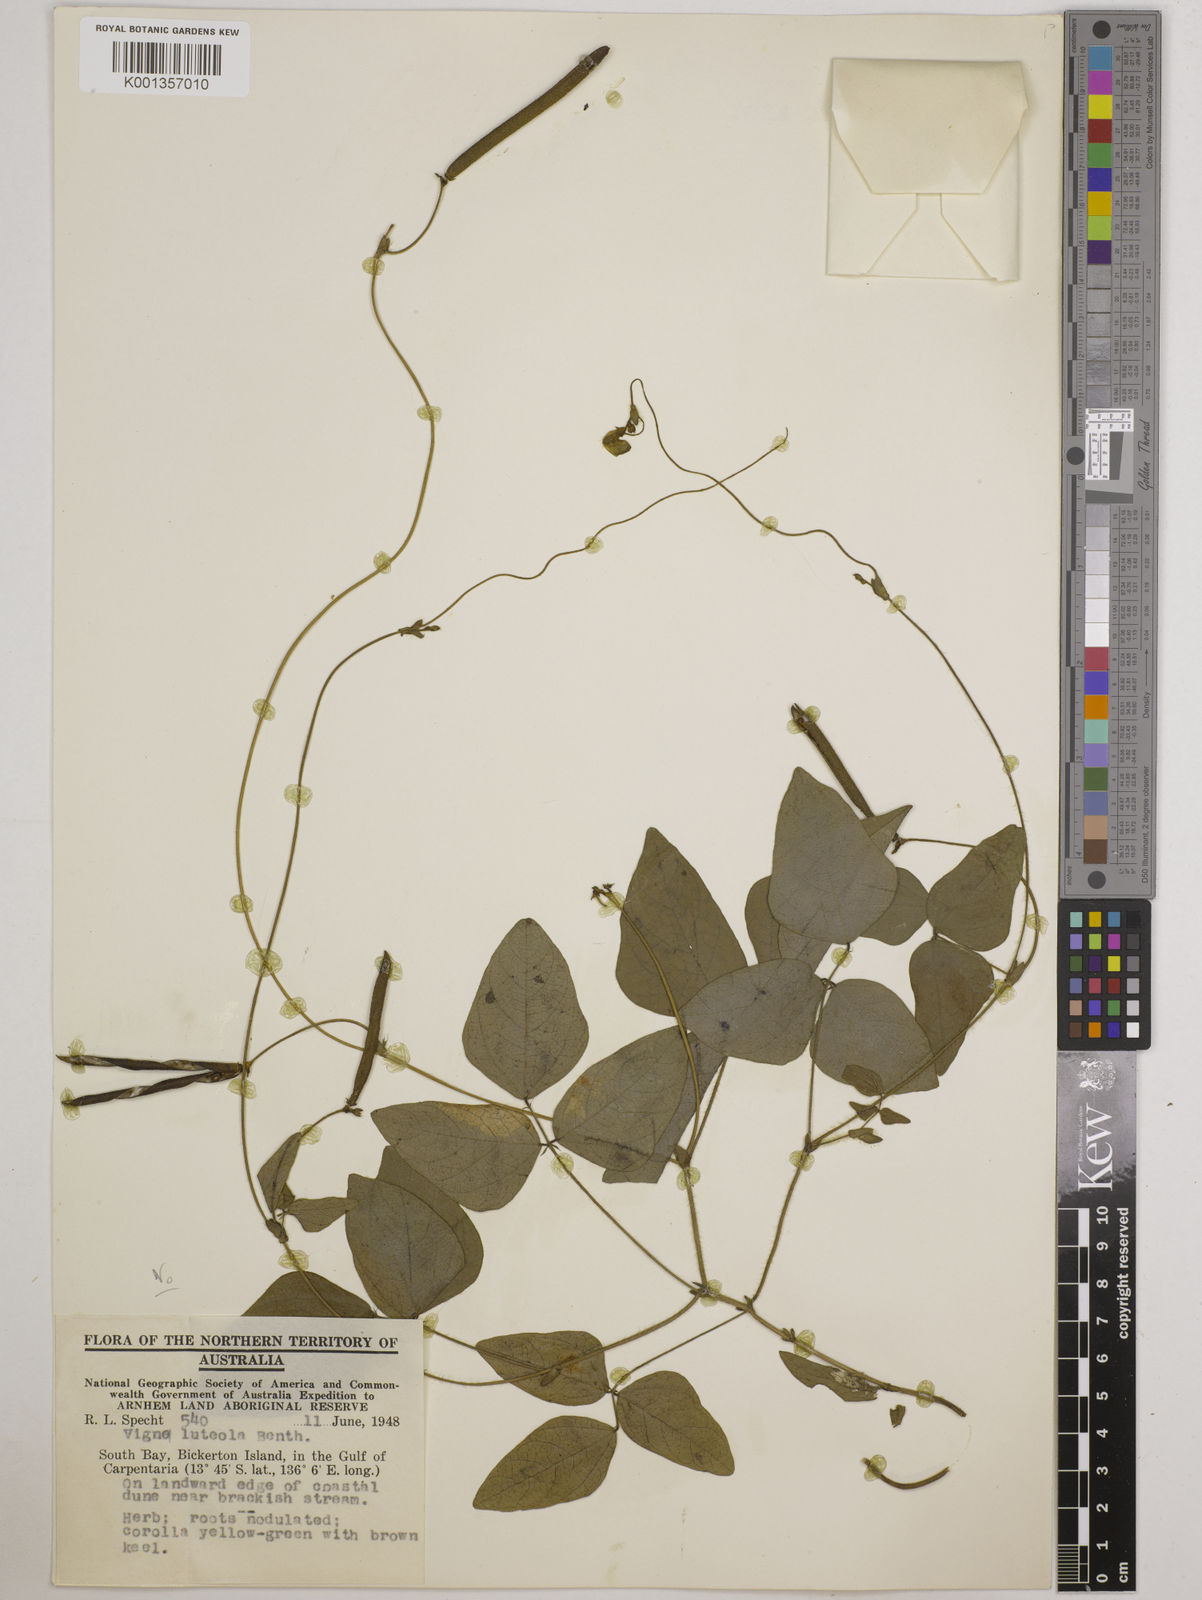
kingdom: Plantae
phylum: Tracheophyta
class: Magnoliopsida
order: Fabales
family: Fabaceae
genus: Vigna
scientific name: Vigna radiata
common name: Mung-bean
